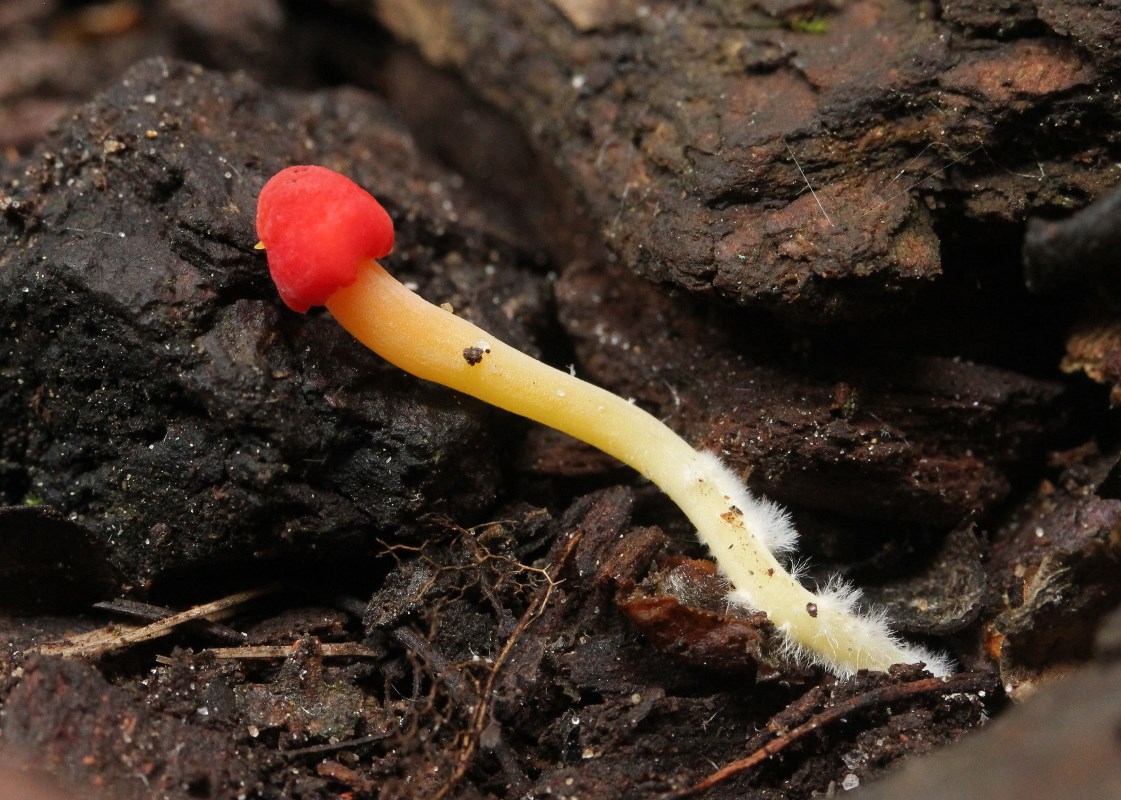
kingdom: Fungi
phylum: Basidiomycota
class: Agaricomycetes
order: Agaricales
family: Mycenaceae
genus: Mycena
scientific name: Mycena acicula
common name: orange huesvamp
